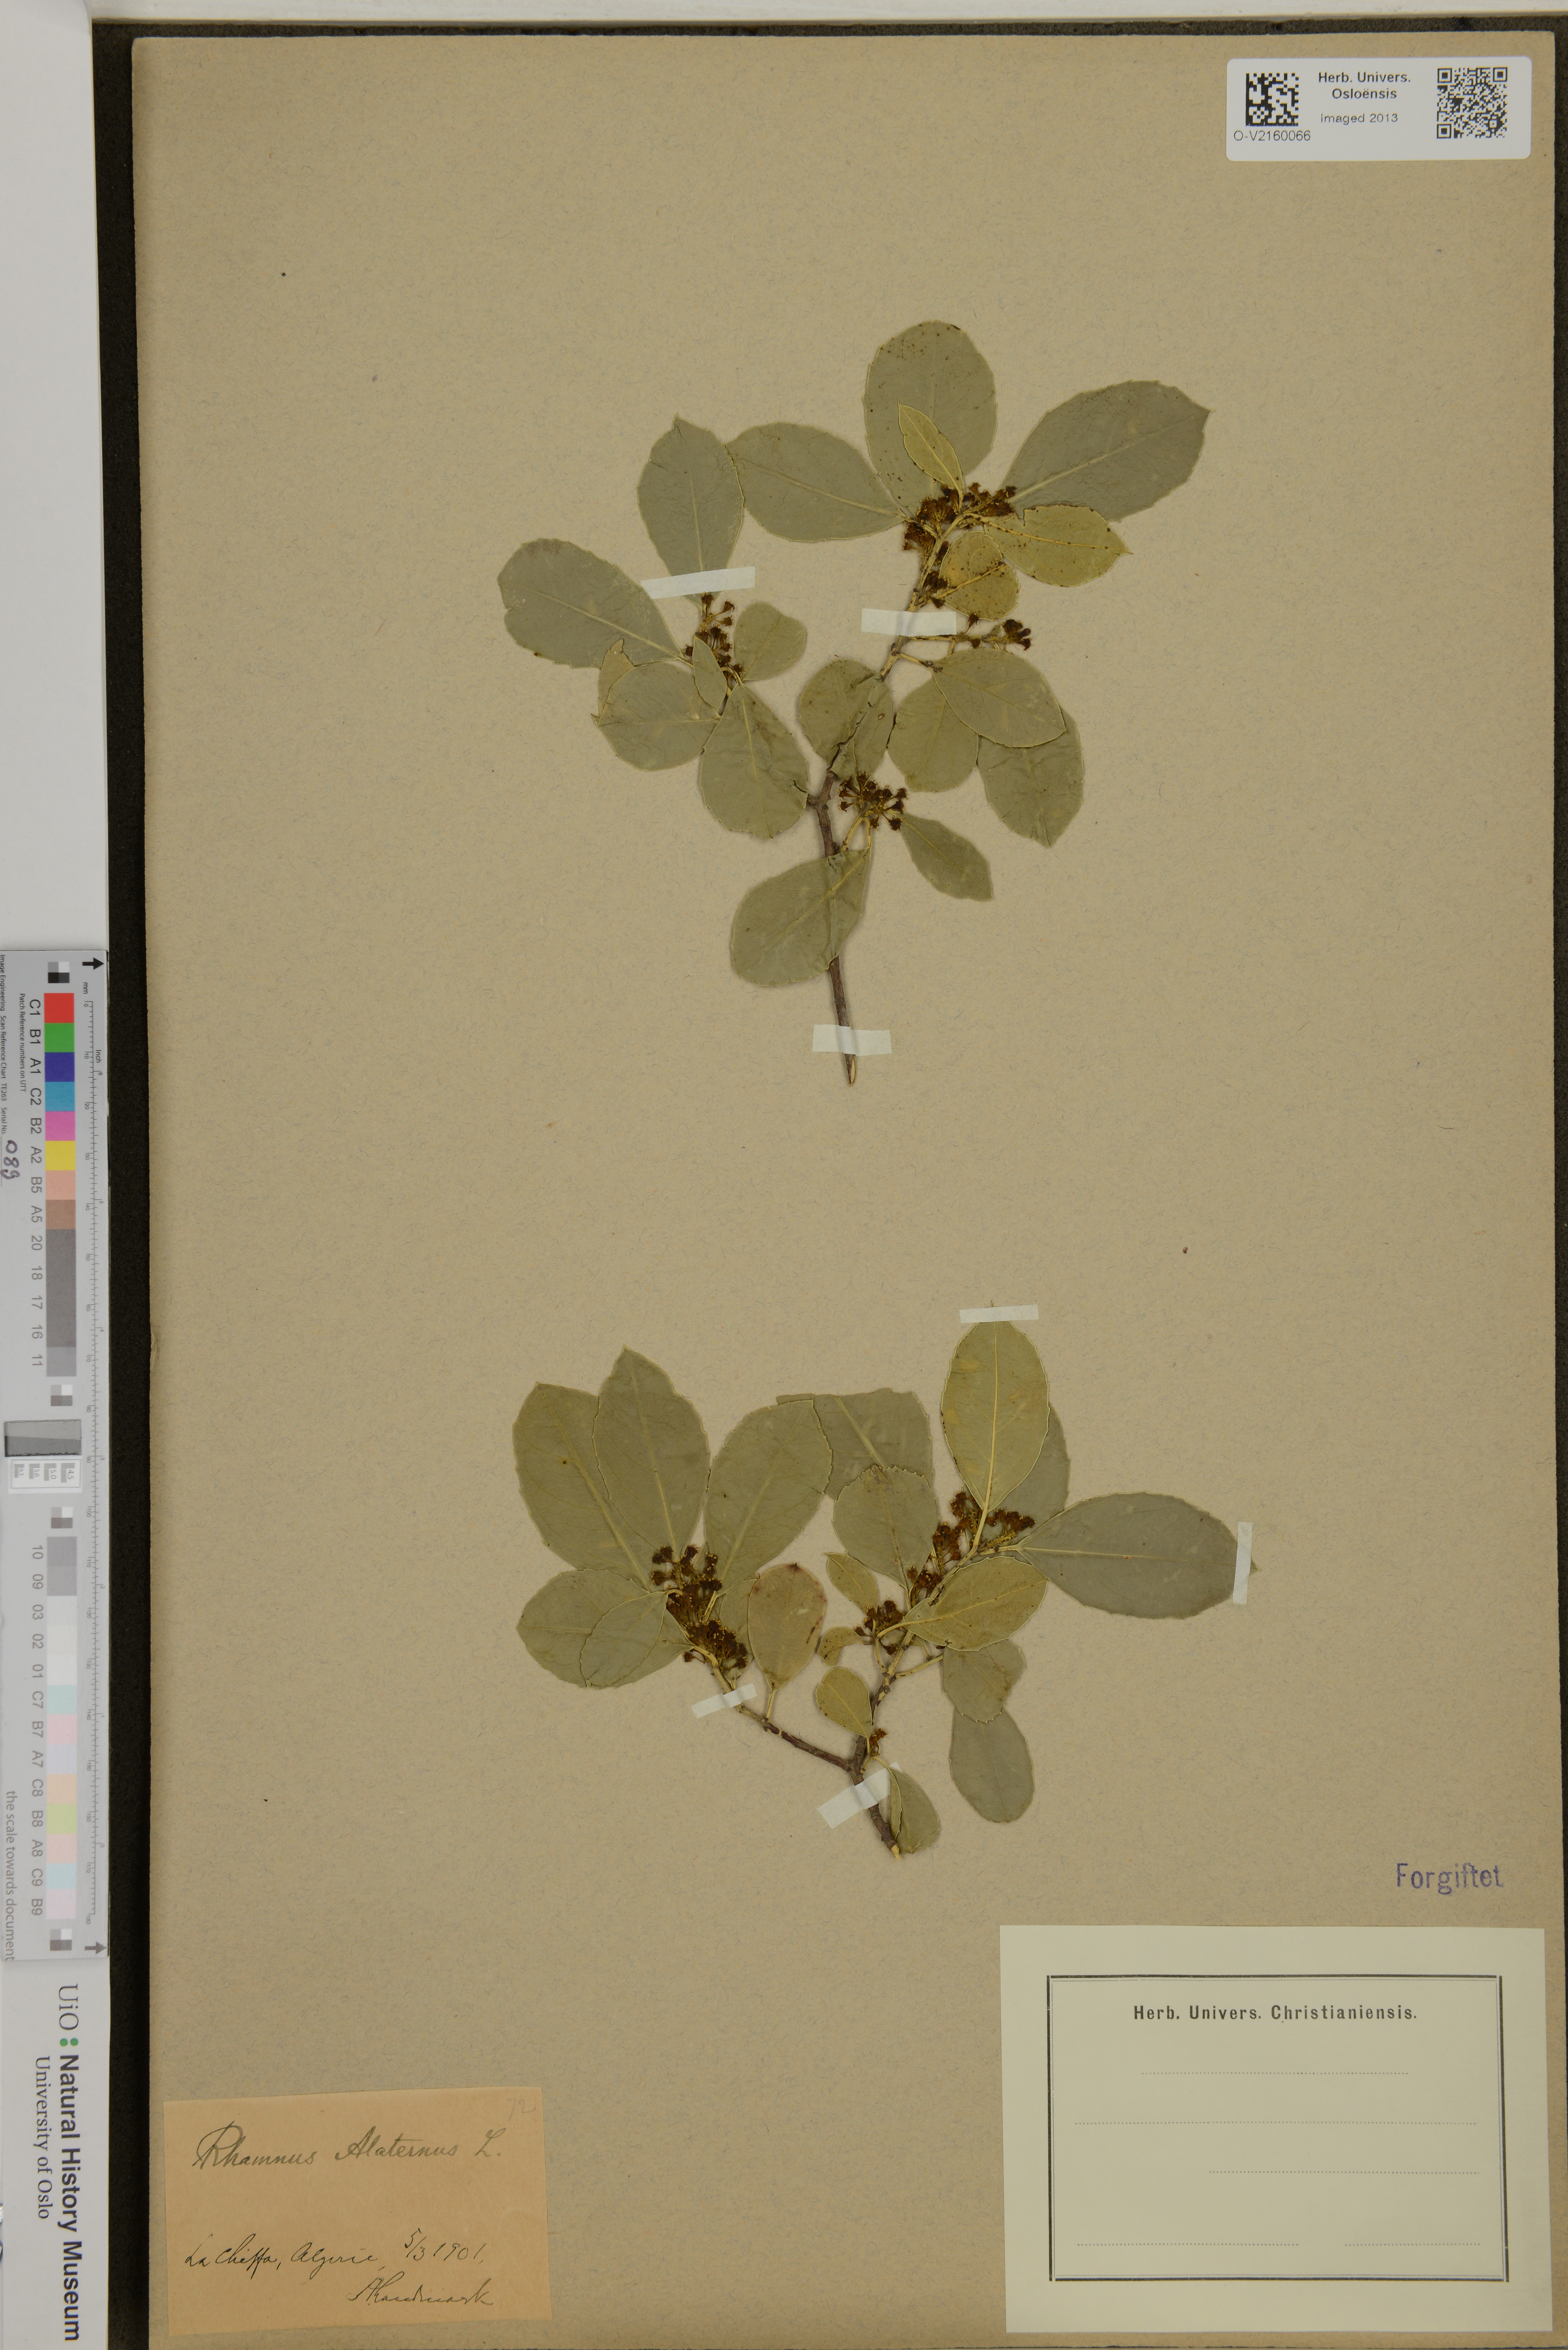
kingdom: Plantae
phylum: Tracheophyta
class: Magnoliopsida
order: Rosales
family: Rhamnaceae
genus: Rhamnus
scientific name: Rhamnus alaternus
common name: Mediterranean buckthorn
